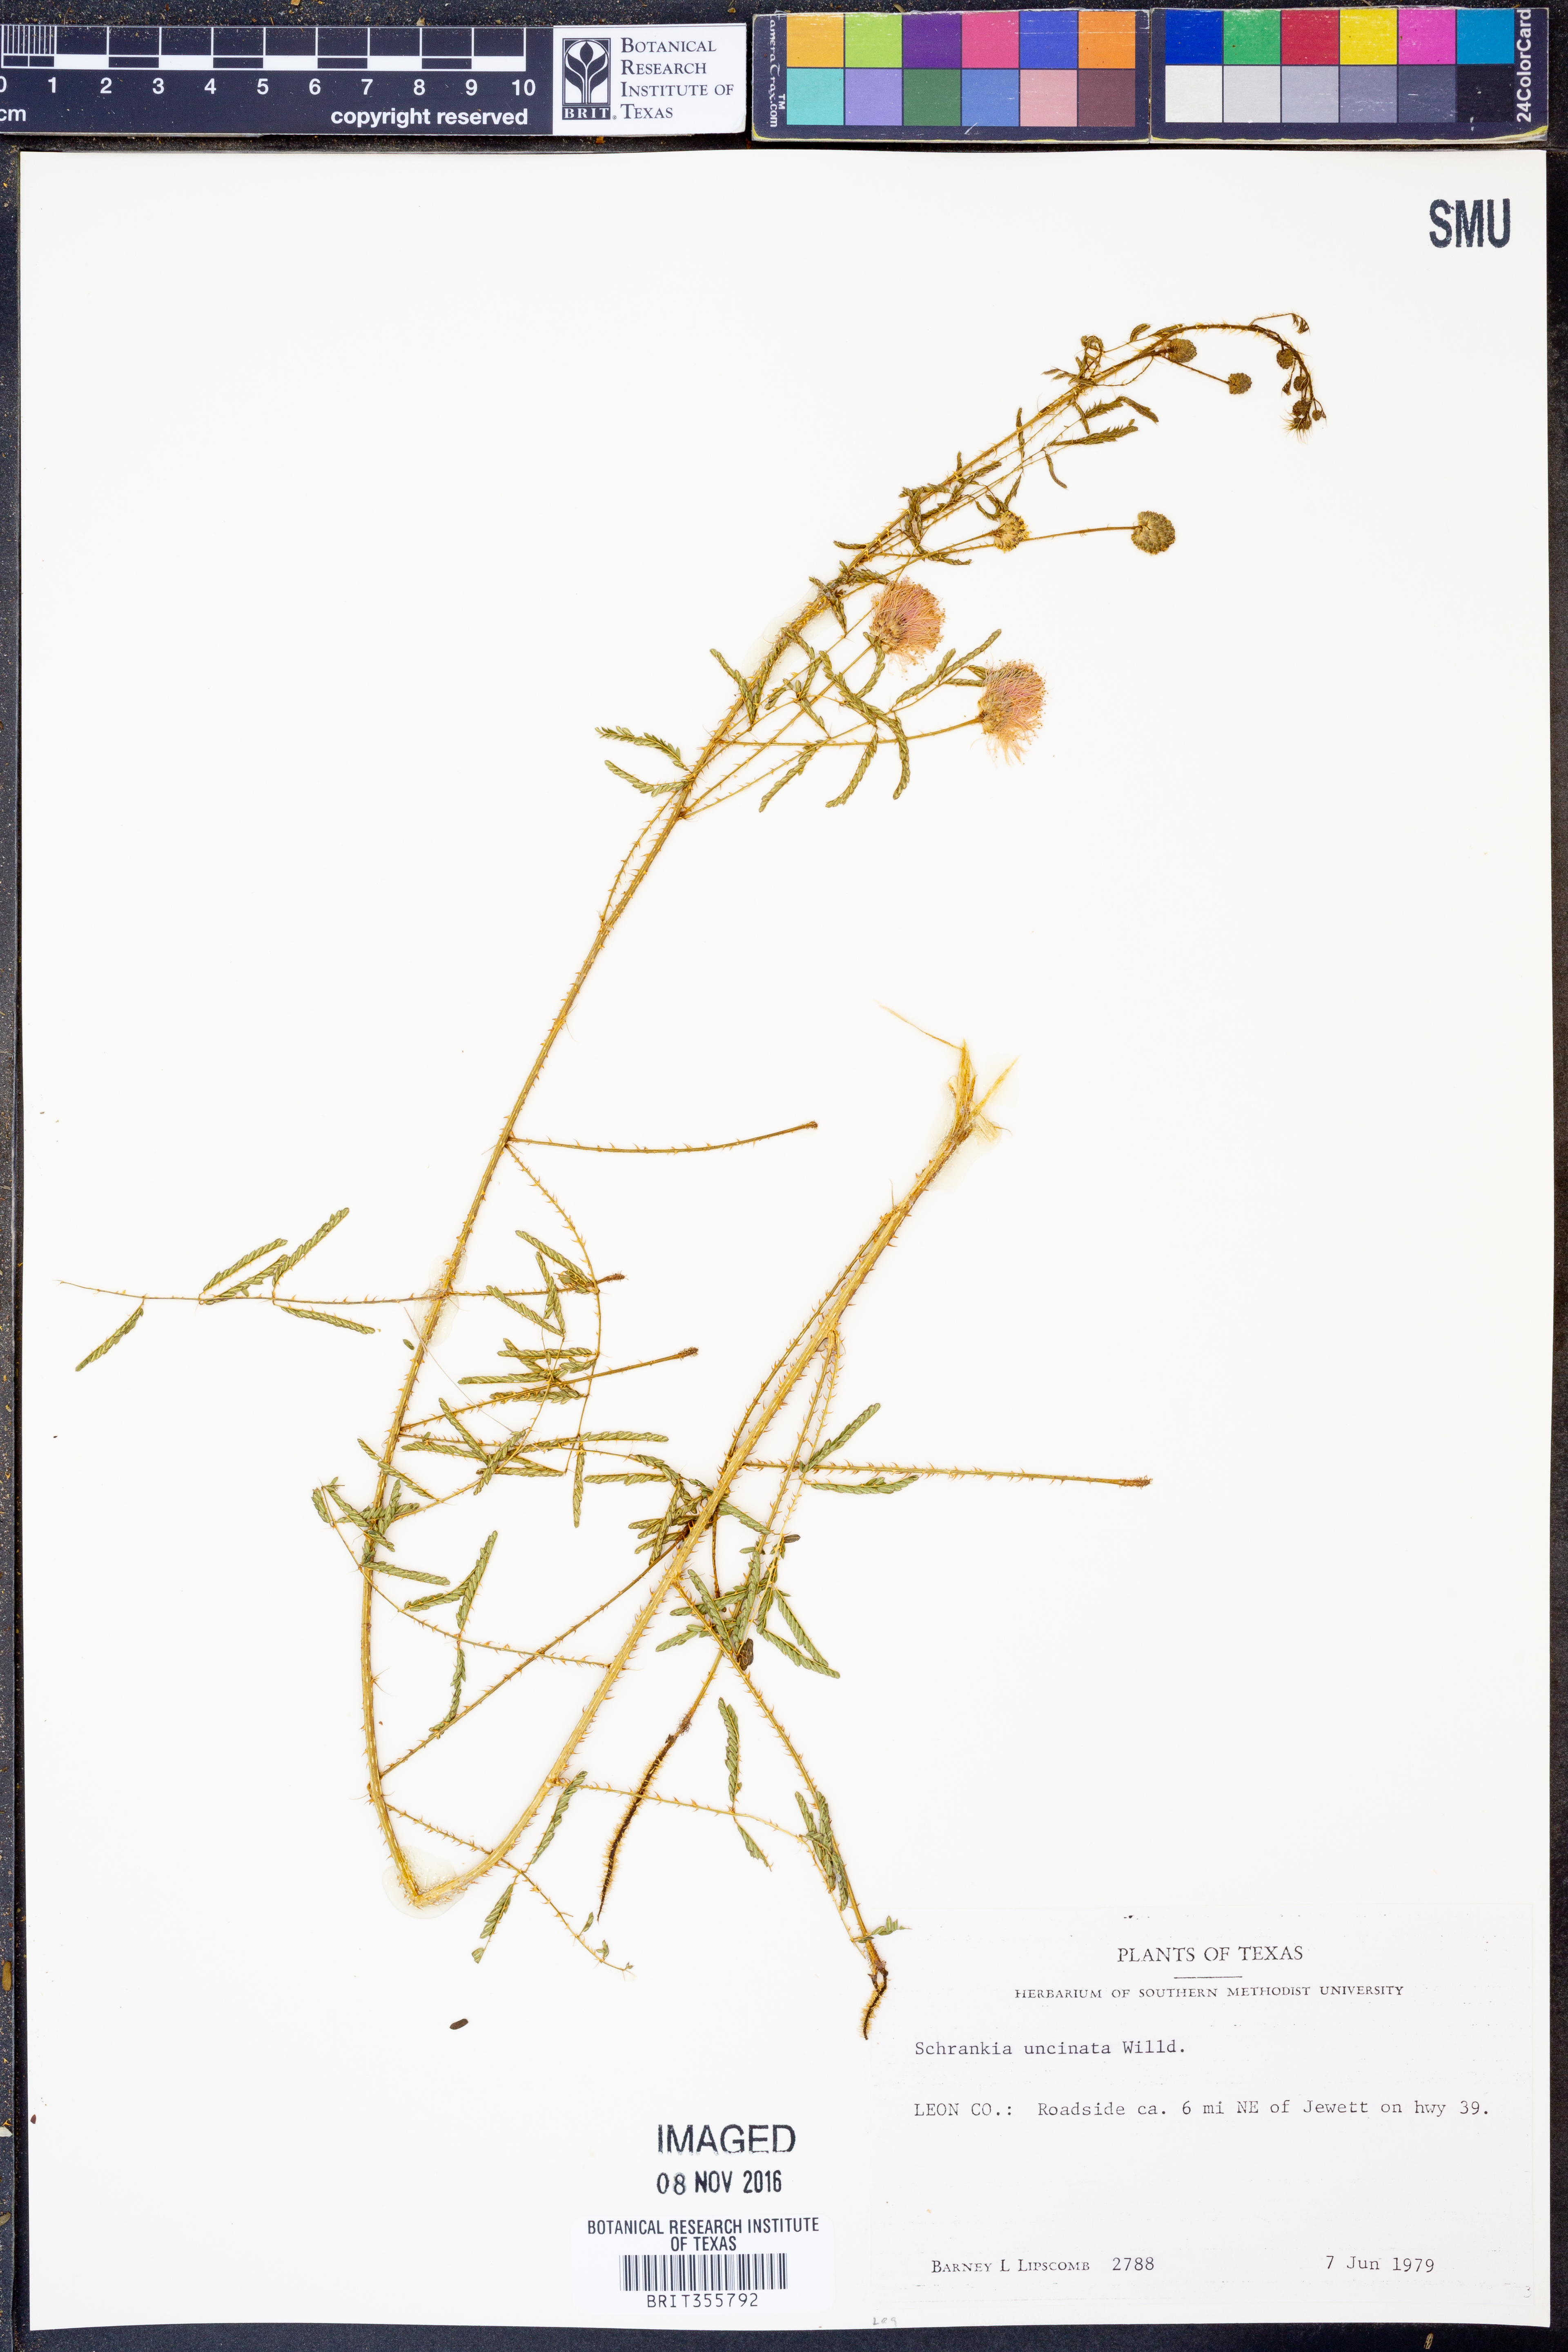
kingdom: Plantae
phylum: Tracheophyta
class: Magnoliopsida
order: Fabales
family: Fabaceae
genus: Mimosa
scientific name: Mimosa quadrivalvis
